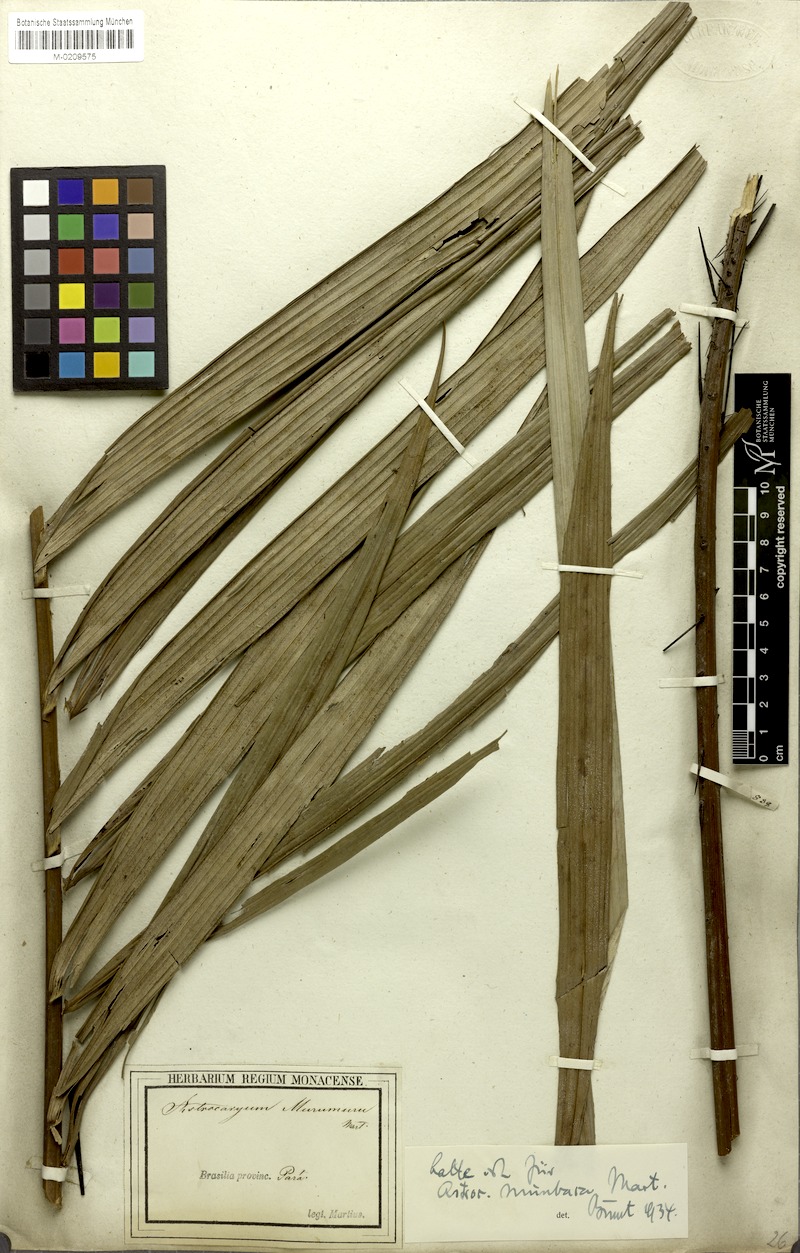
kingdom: Plantae
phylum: Tracheophyta
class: Liliopsida
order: Arecales
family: Arecaceae
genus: Astrocaryum
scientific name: Astrocaryum murumuru
